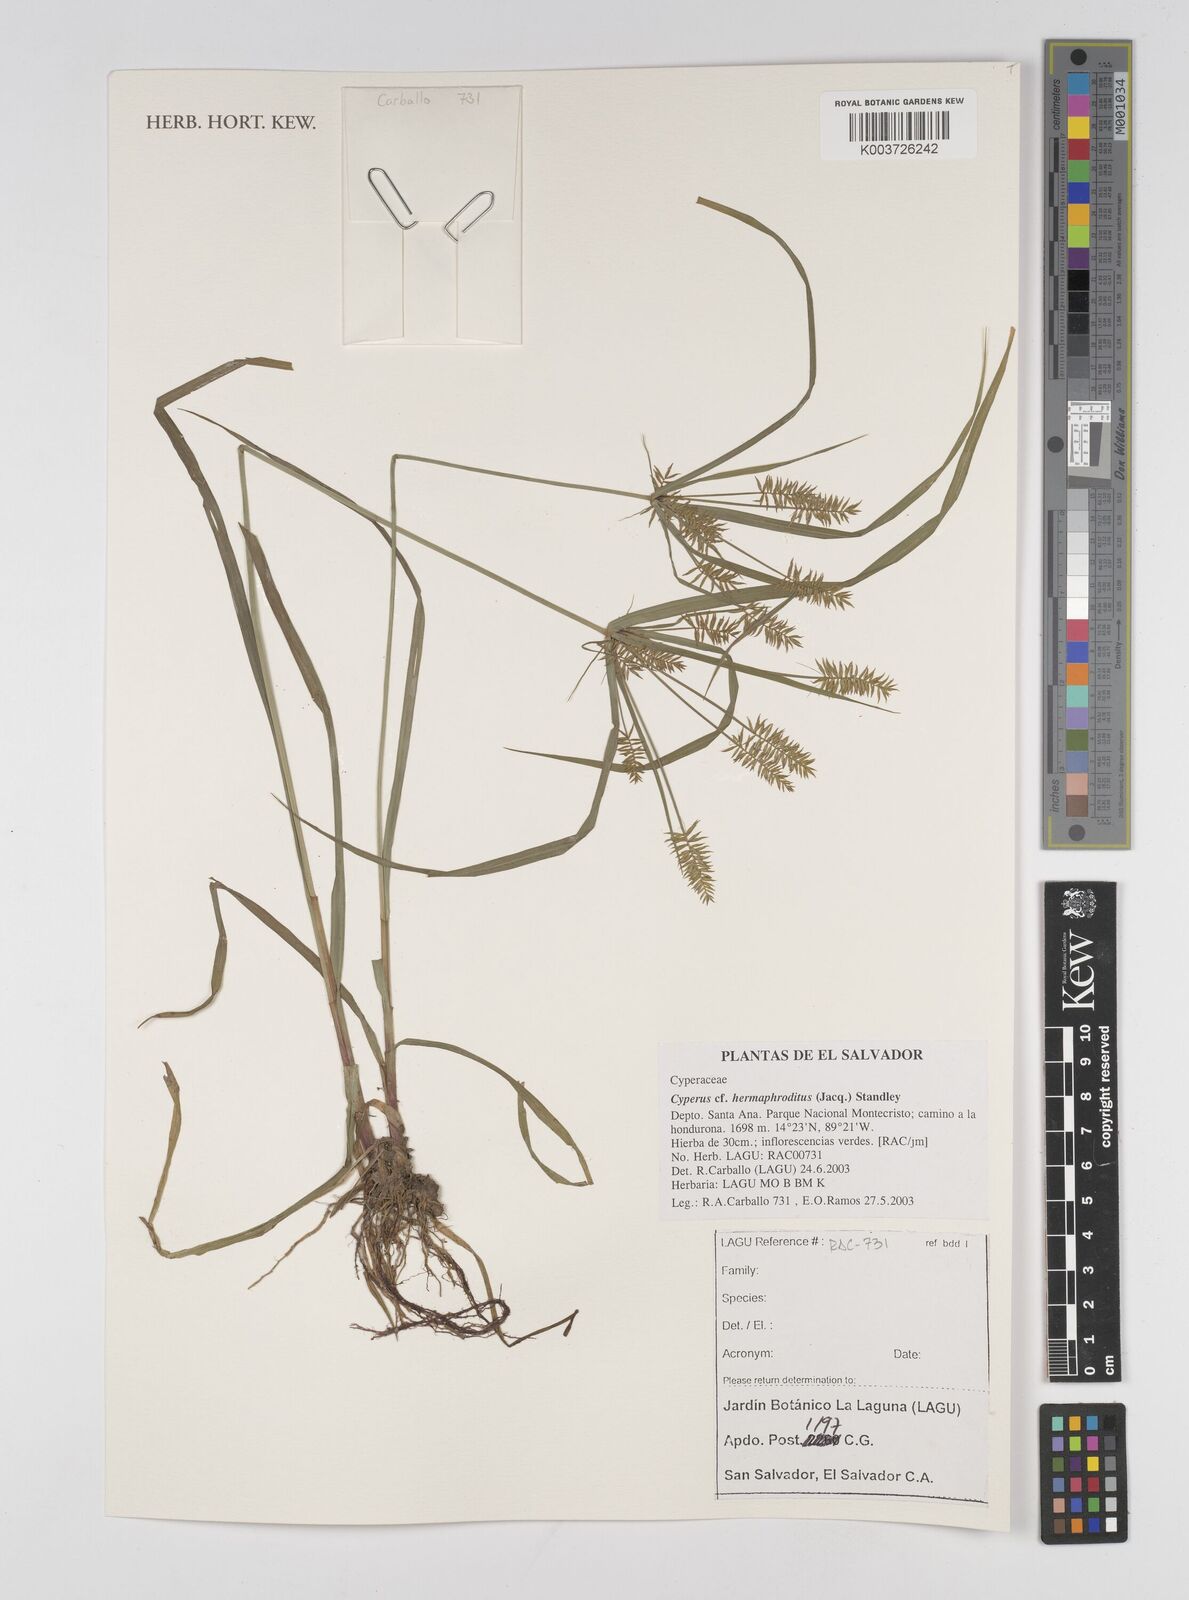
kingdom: Plantae
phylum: Tracheophyta
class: Liliopsida
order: Poales
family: Cyperaceae
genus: Cyperus
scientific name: Cyperus hermaphroditus
